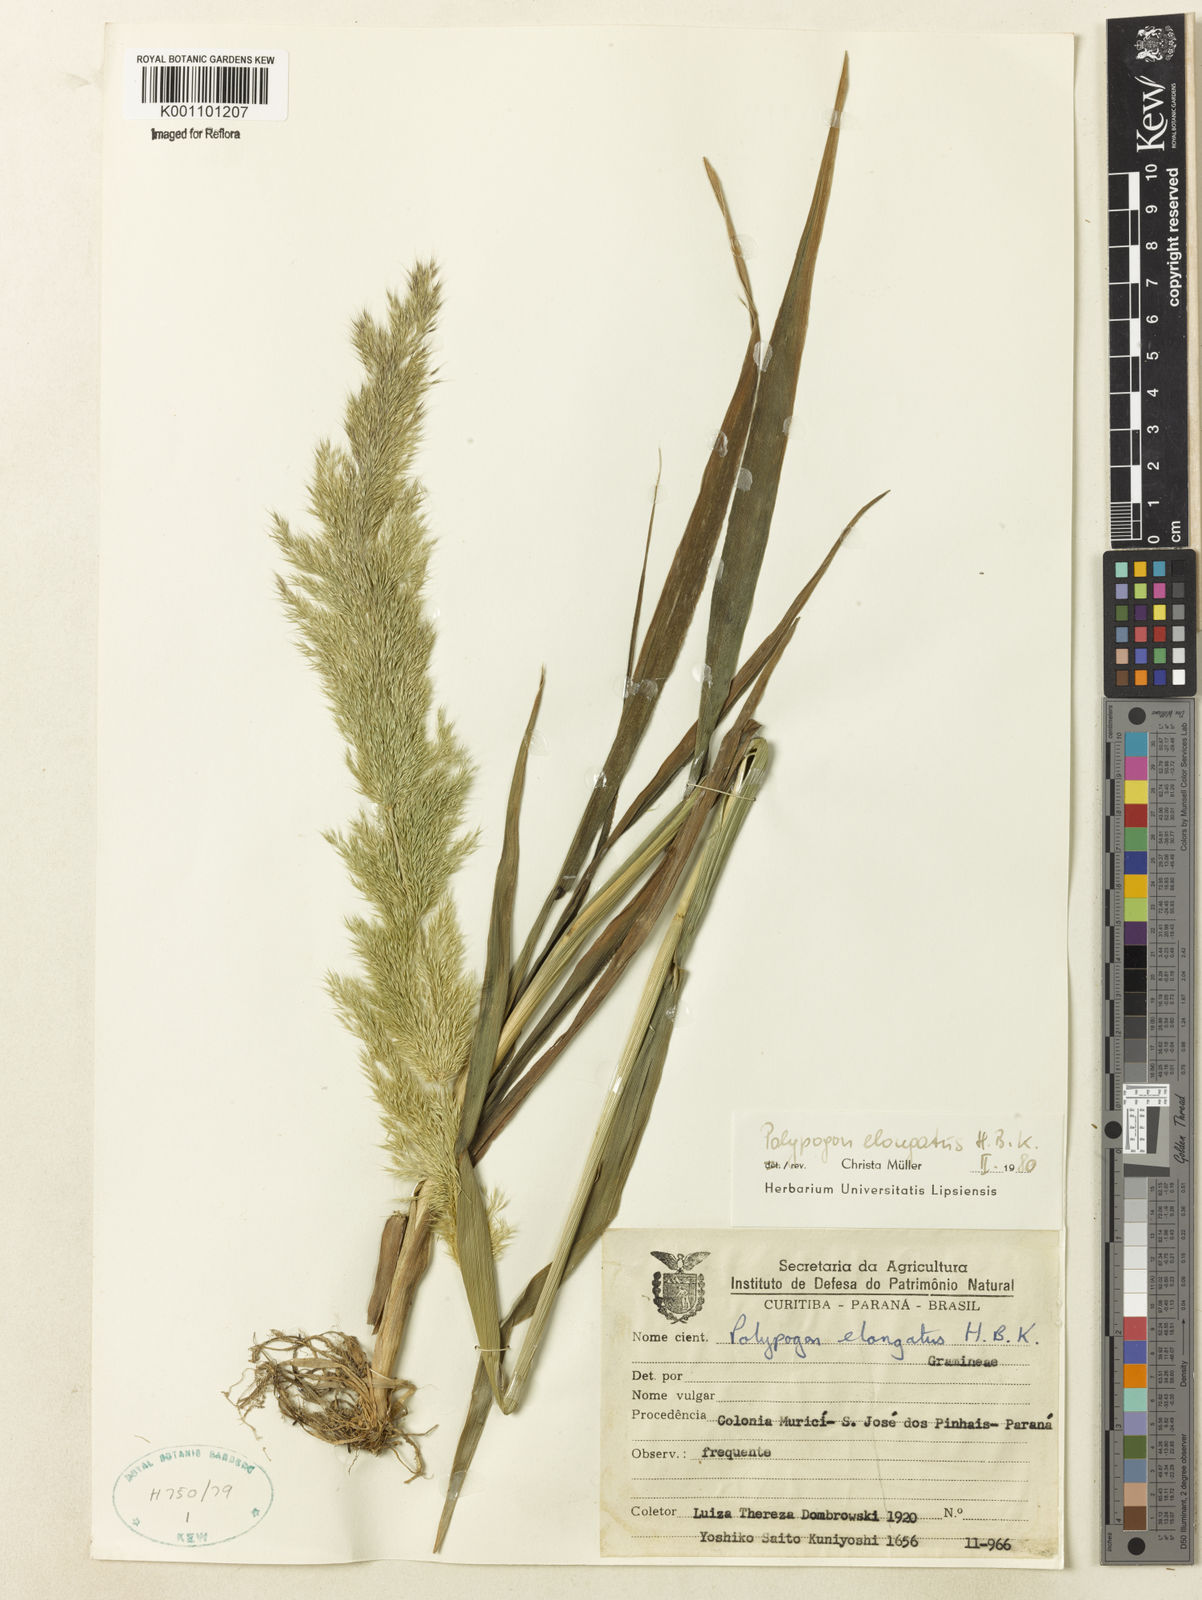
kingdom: Plantae
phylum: Tracheophyta
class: Liliopsida
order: Poales
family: Poaceae
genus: Polypogon
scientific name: Polypogon elongatus
